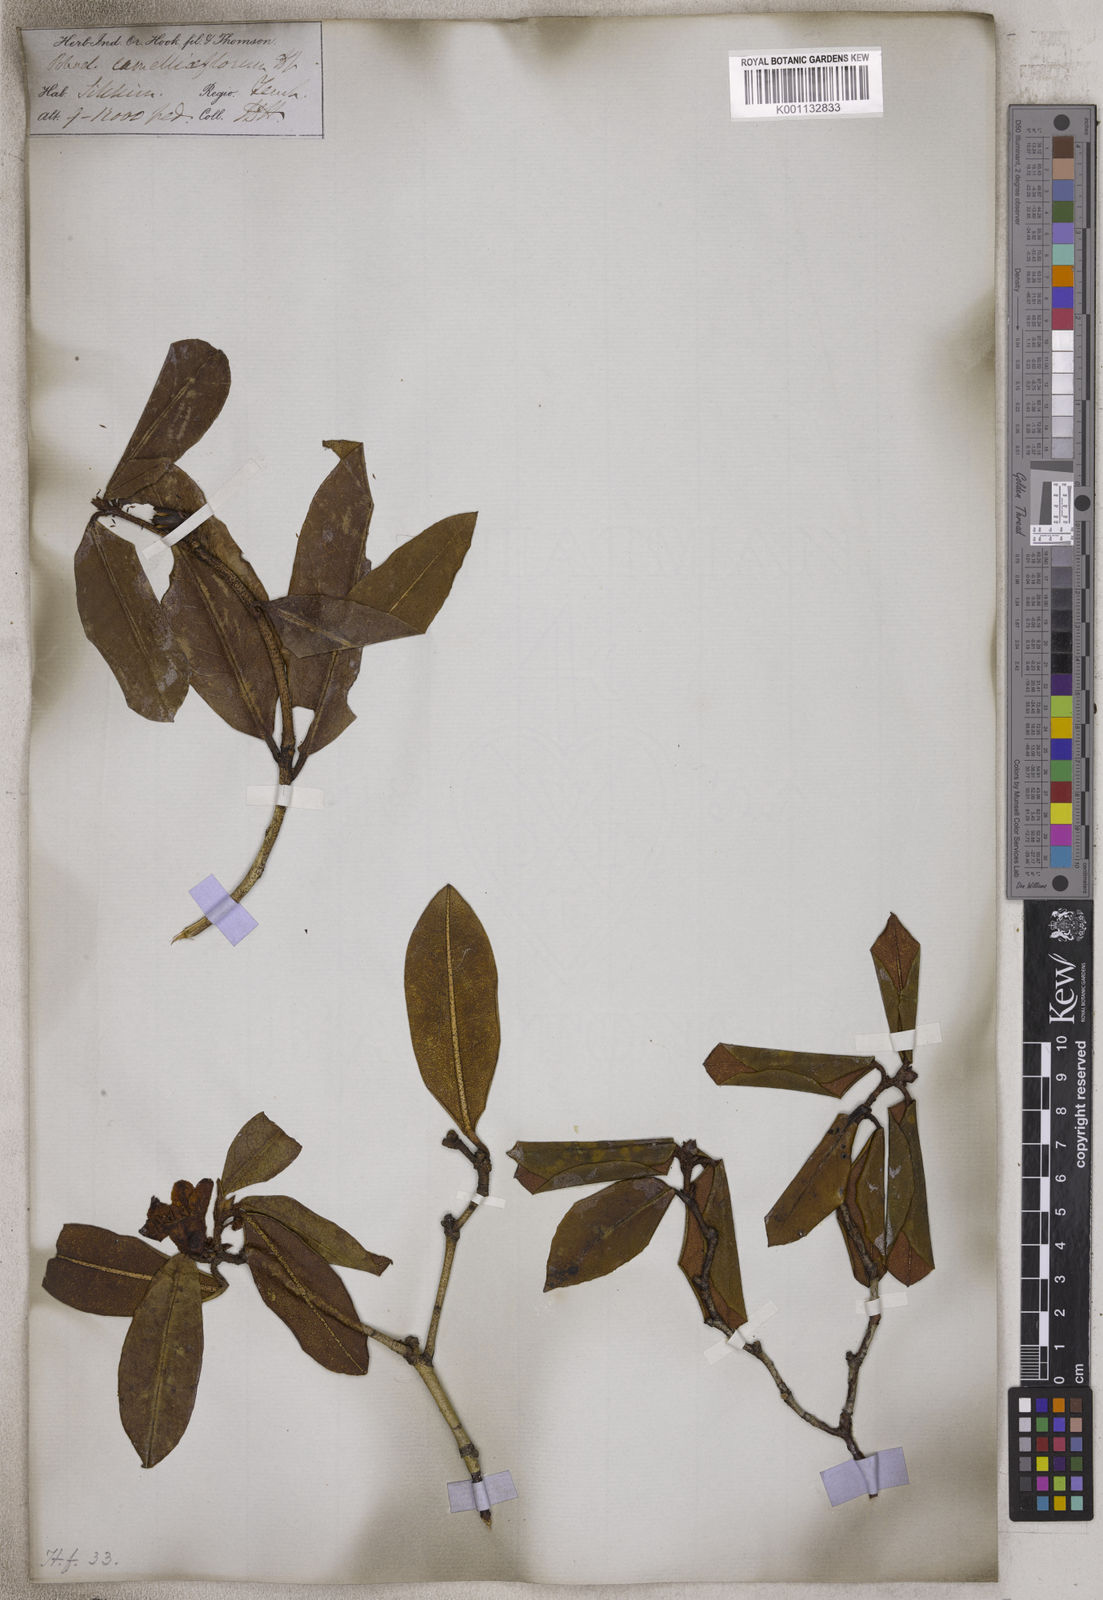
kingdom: Plantae
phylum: Tracheophyta
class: Magnoliopsida
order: Ericales
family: Ericaceae
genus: Rhododendron
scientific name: Rhododendron camelliiflorum
